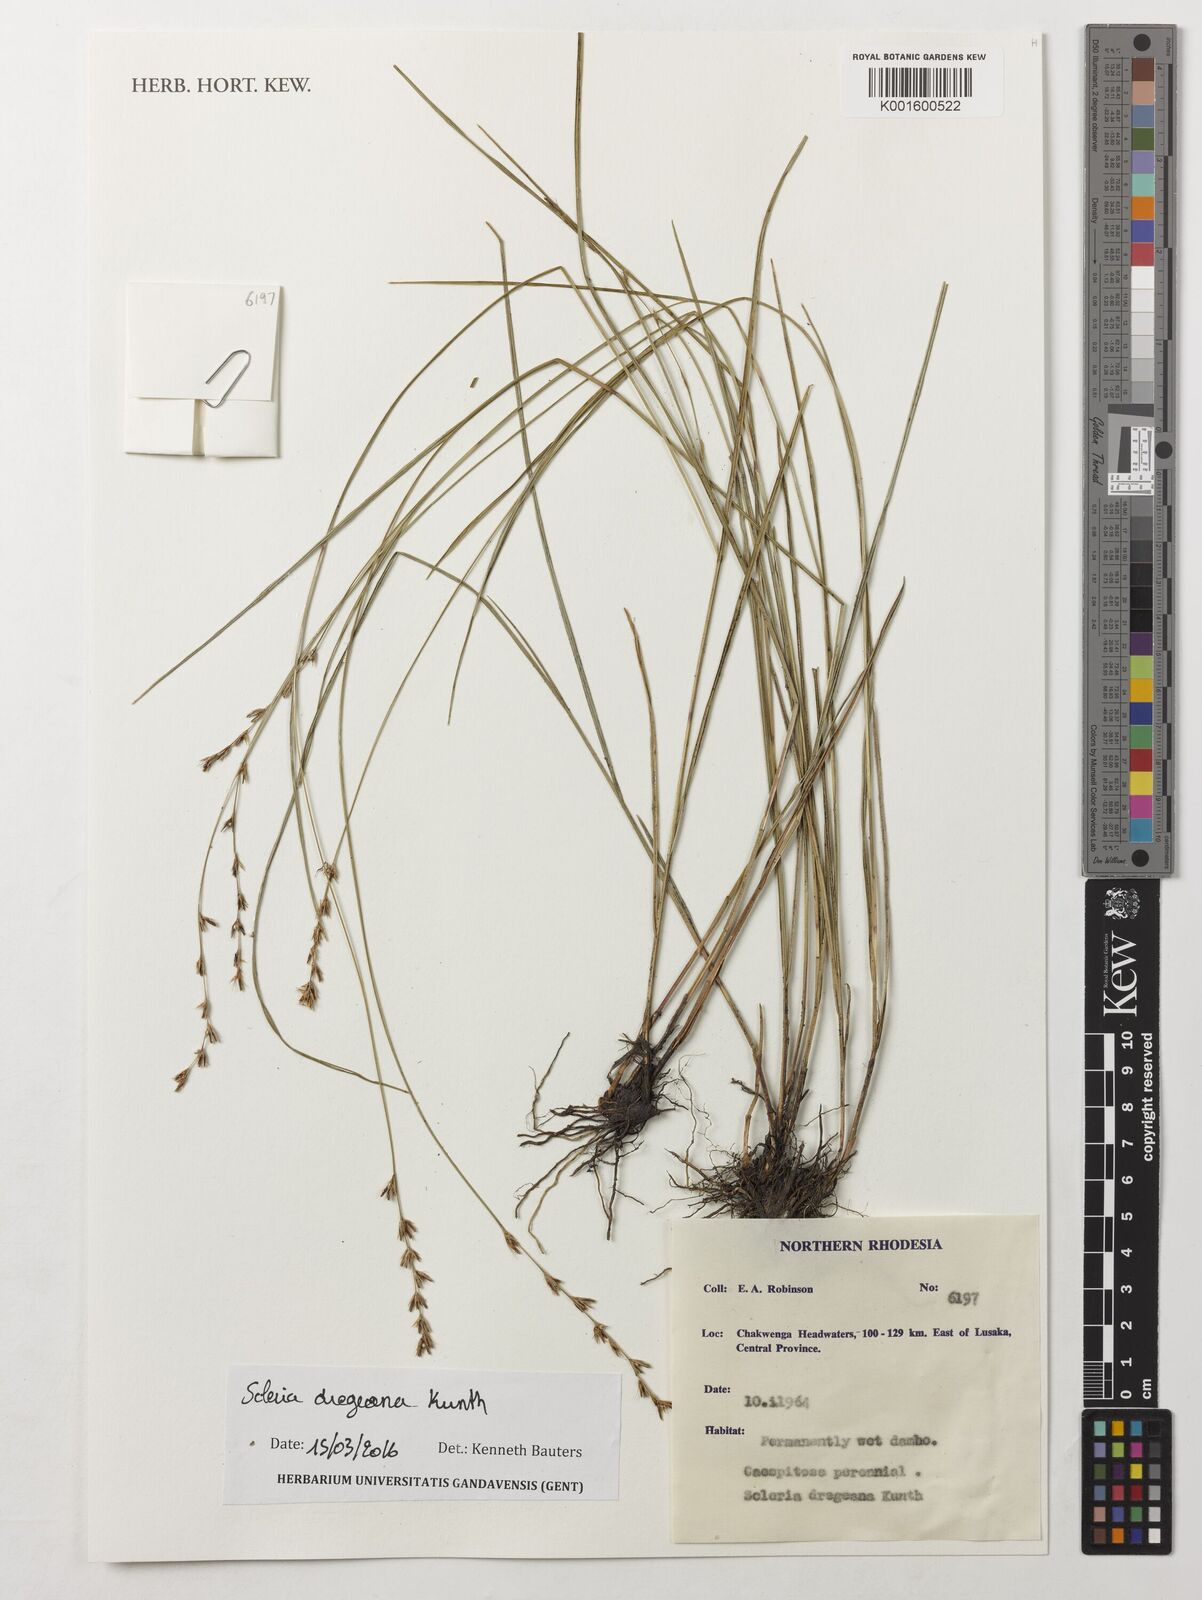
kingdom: Plantae
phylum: Tracheophyta
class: Liliopsida
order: Poales
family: Cyperaceae
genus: Scleria
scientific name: Scleria dregeana
